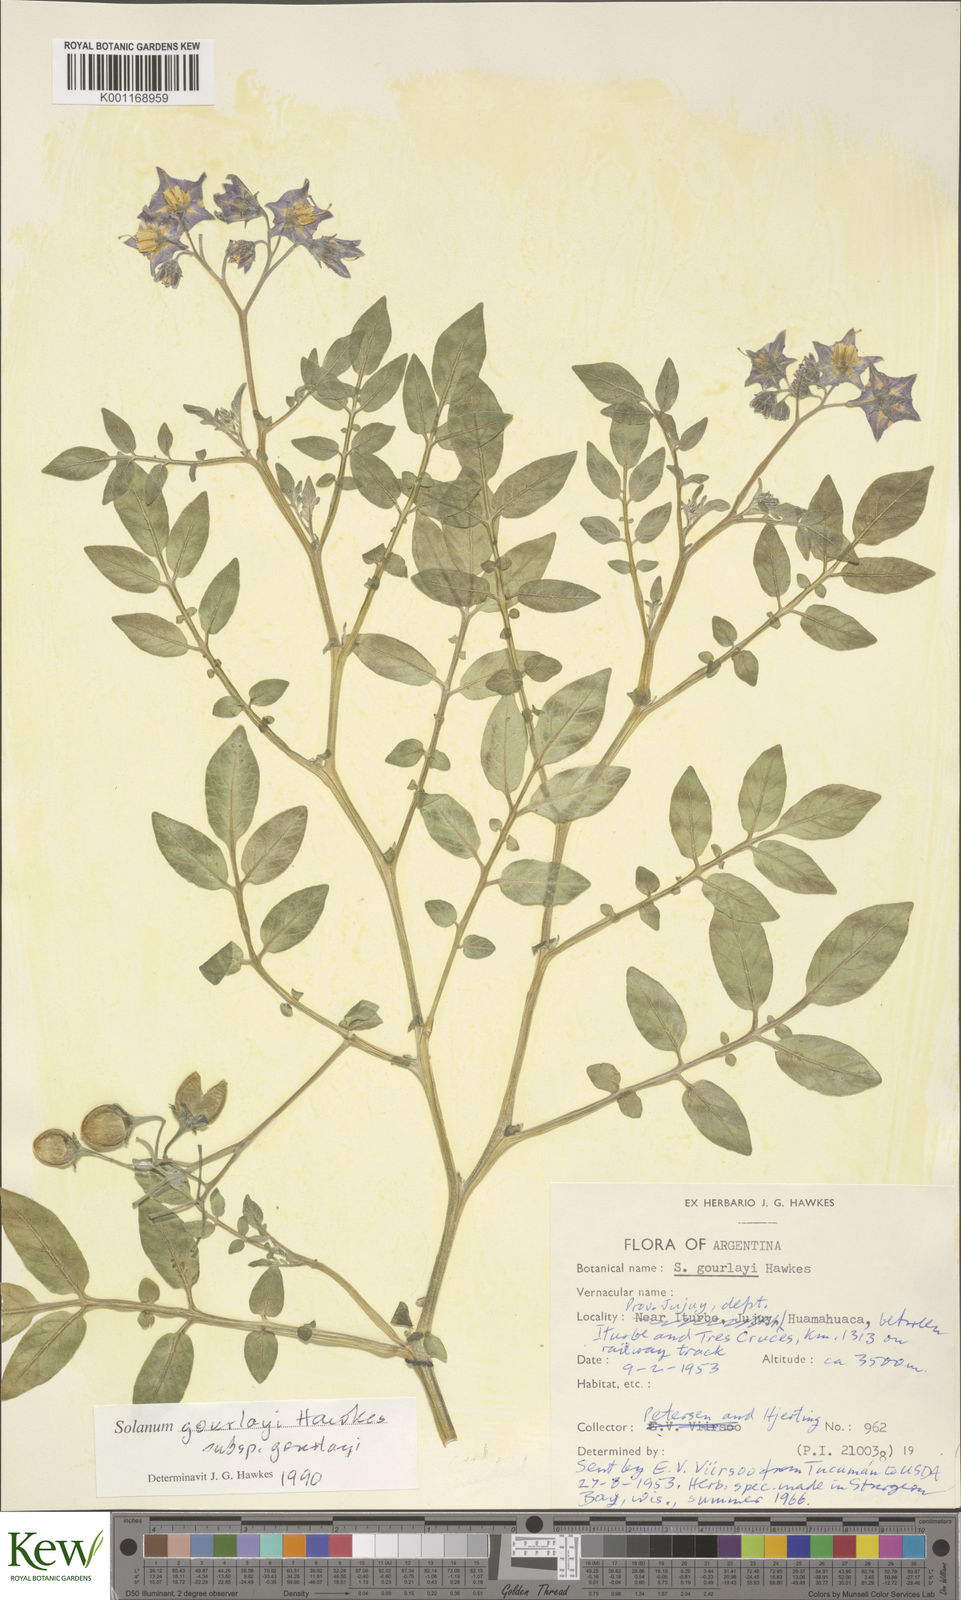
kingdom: Plantae
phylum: Tracheophyta
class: Magnoliopsida
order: Solanales
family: Solanaceae
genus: Solanum
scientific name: Solanum brevicaule
